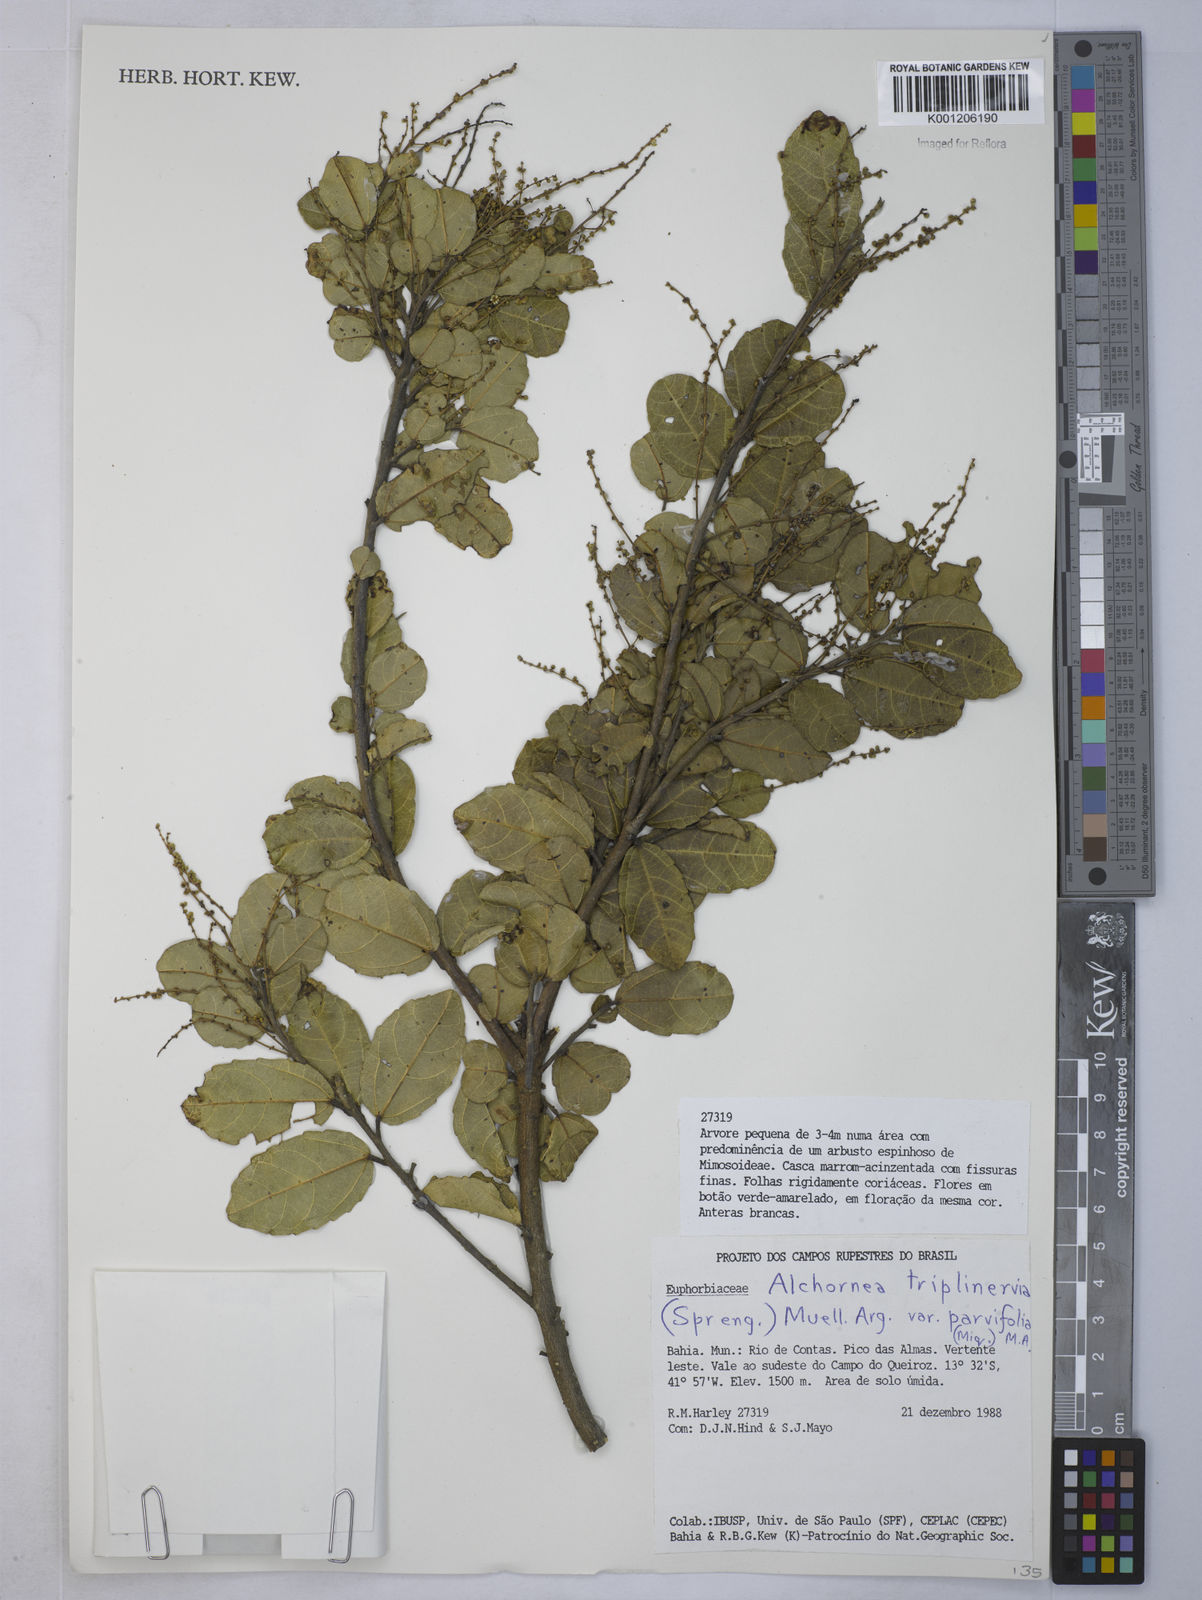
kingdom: Plantae
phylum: Tracheophyta
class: Magnoliopsida
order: Malpighiales
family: Euphorbiaceae
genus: Alchornea
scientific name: Alchornea
